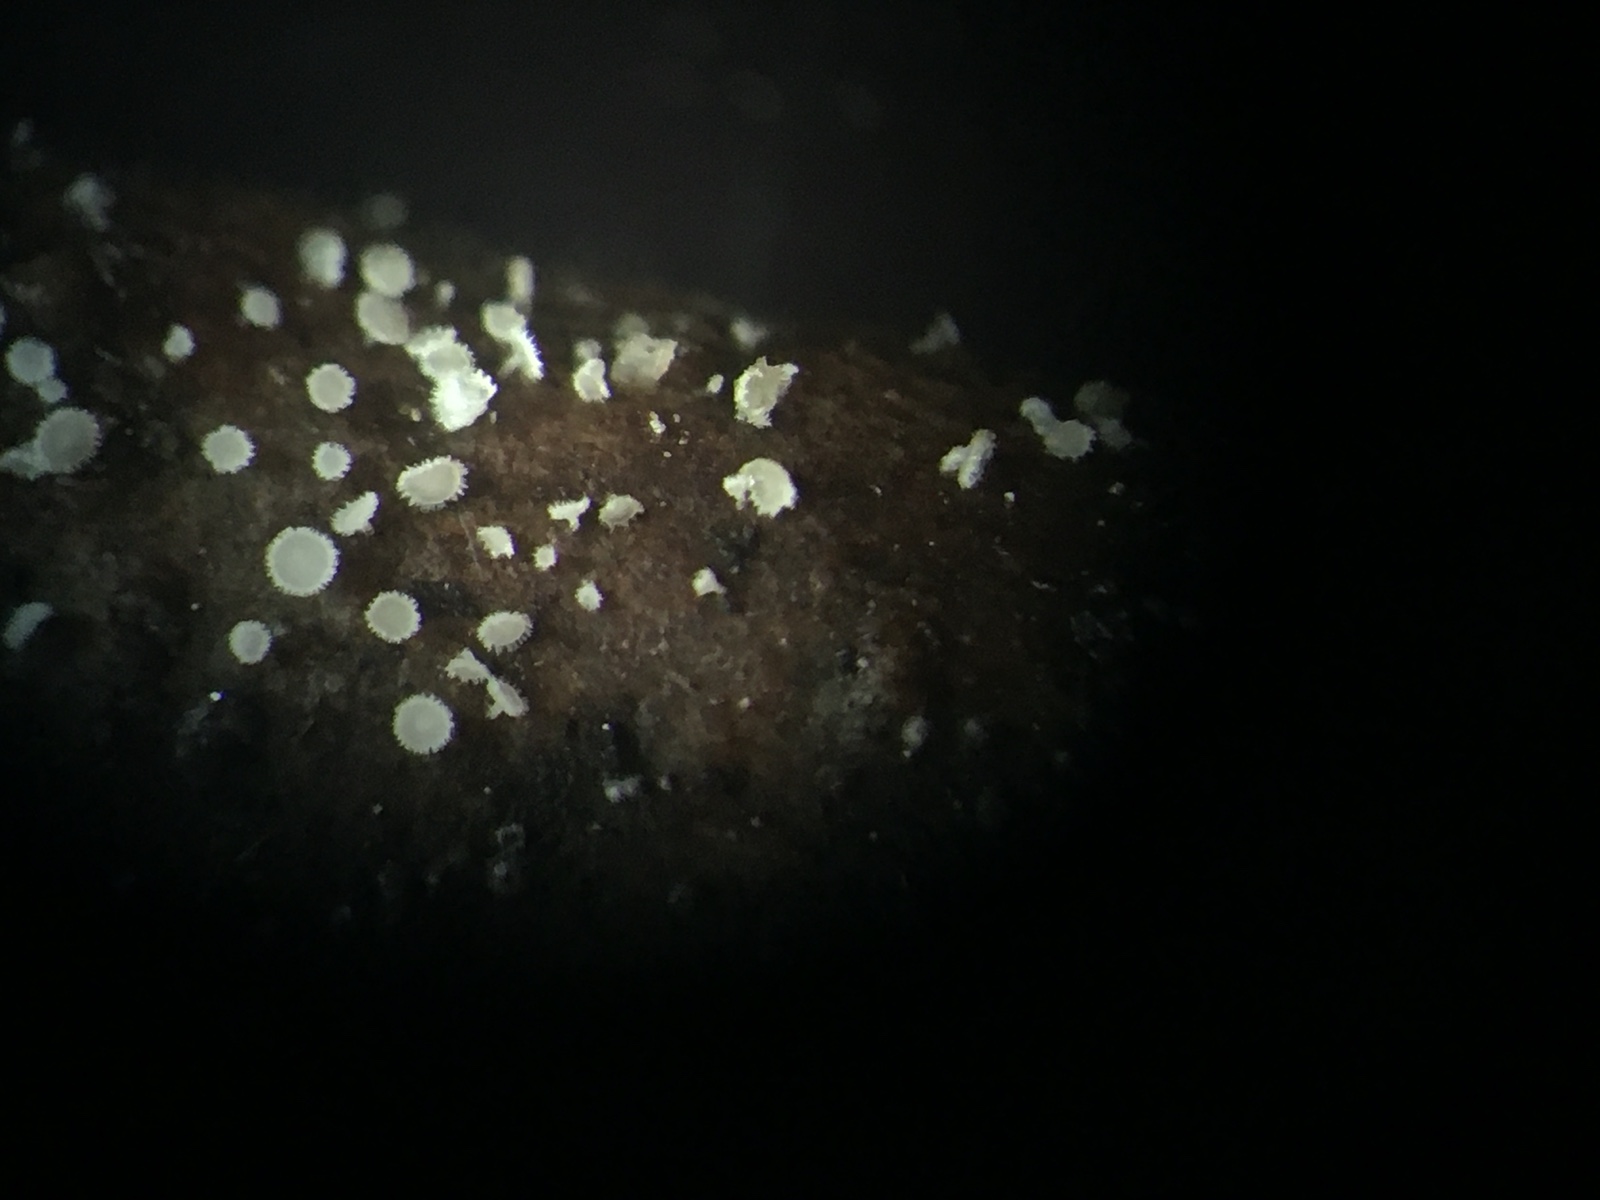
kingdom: Fungi
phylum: Ascomycota
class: Leotiomycetes
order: Helotiales
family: Lachnaceae
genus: Incrucipulum
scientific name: Incrucipulum sulphurellum
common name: pors-frynseskive
